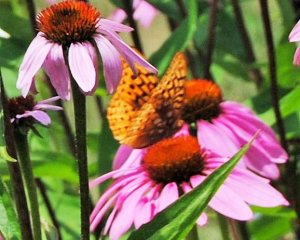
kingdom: Animalia
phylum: Arthropoda
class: Insecta
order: Lepidoptera
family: Nymphalidae
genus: Speyeria
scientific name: Speyeria
